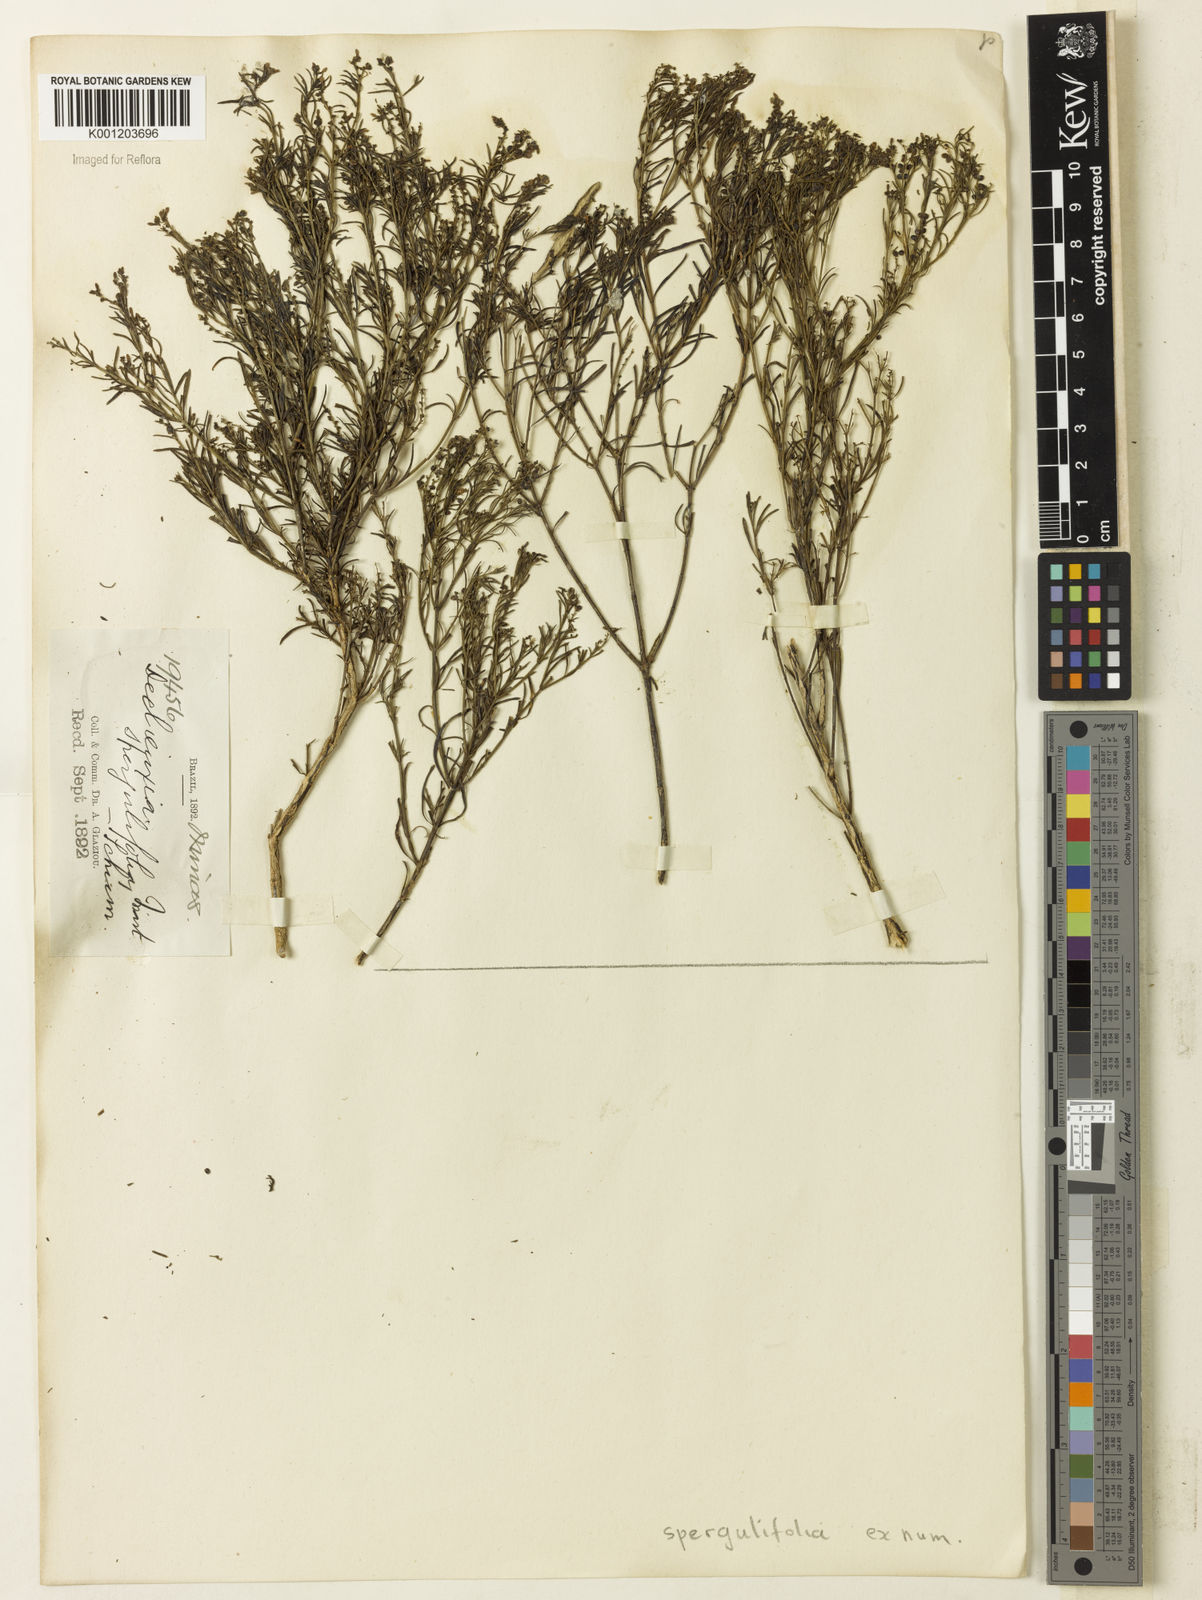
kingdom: Plantae
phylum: Tracheophyta
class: Magnoliopsida
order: Gentianales
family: Rubiaceae
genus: Declieuxia
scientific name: Declieuxia
